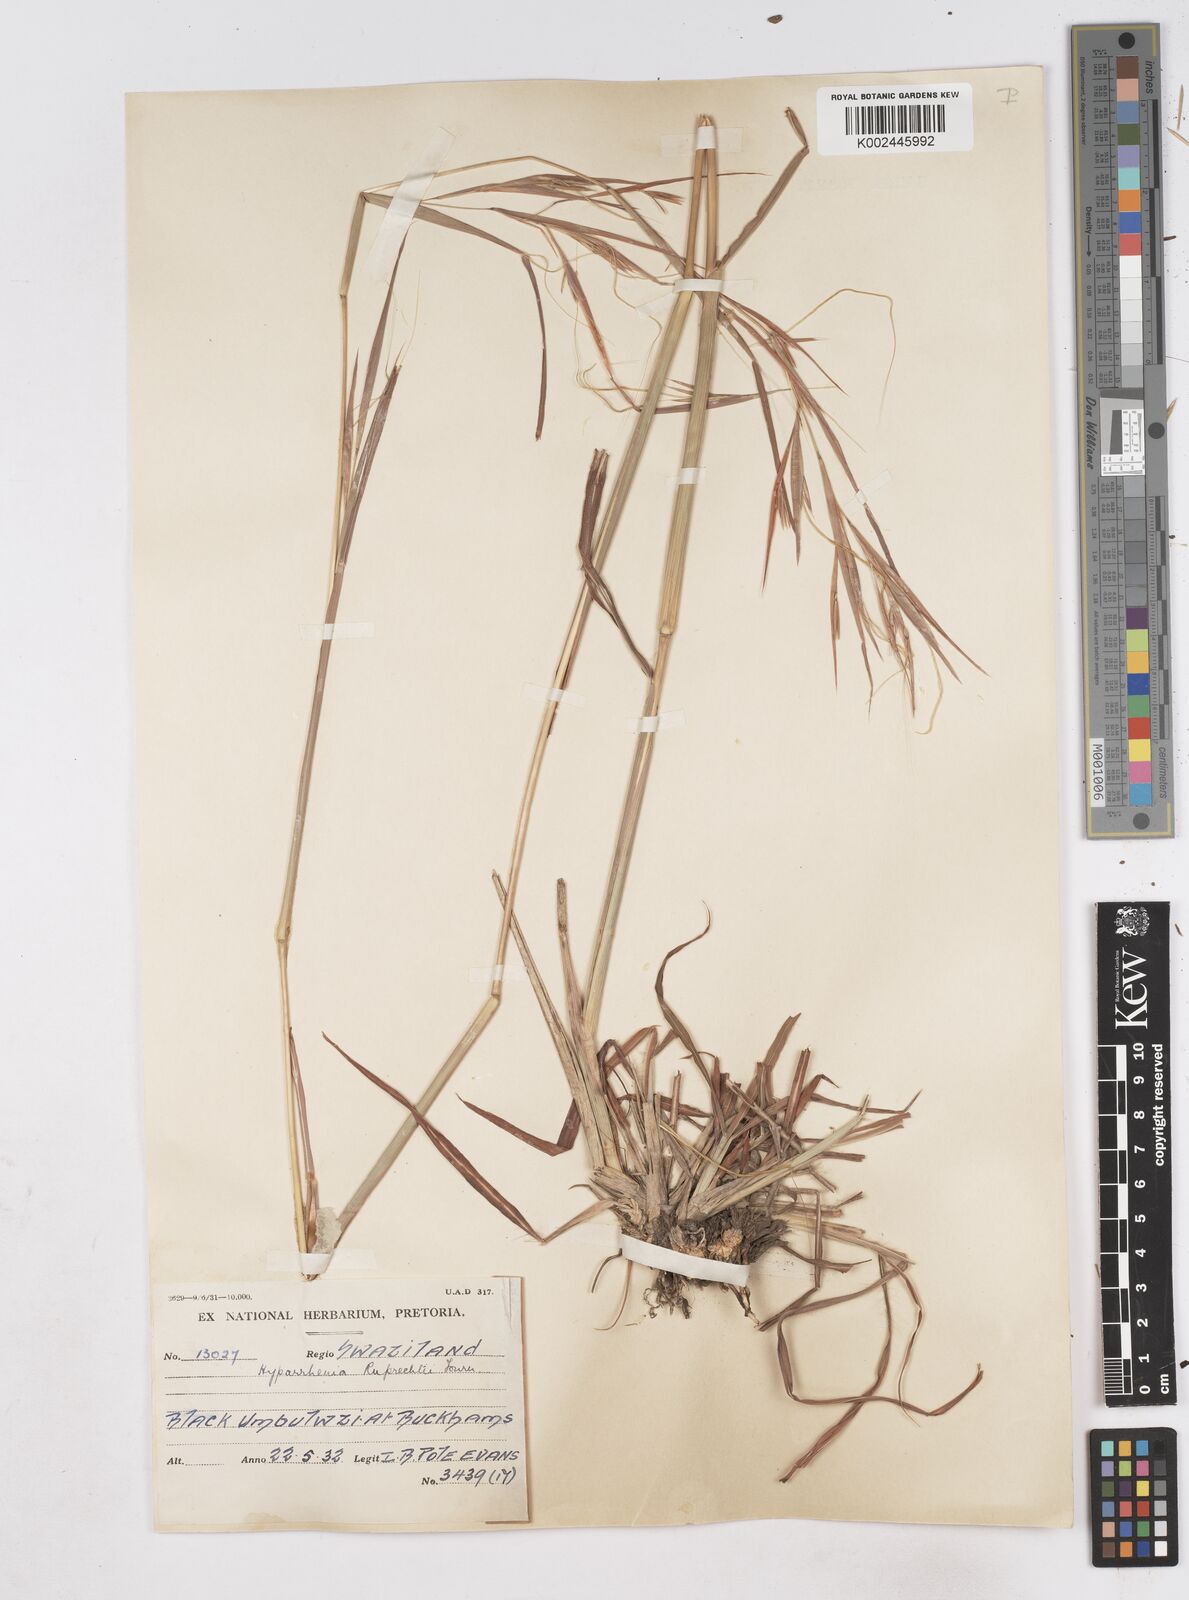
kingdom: Plantae
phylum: Tracheophyta
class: Liliopsida
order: Poales
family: Poaceae
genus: Hyperthelia
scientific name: Hyperthelia dissoluta
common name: Yellow thatching grass
